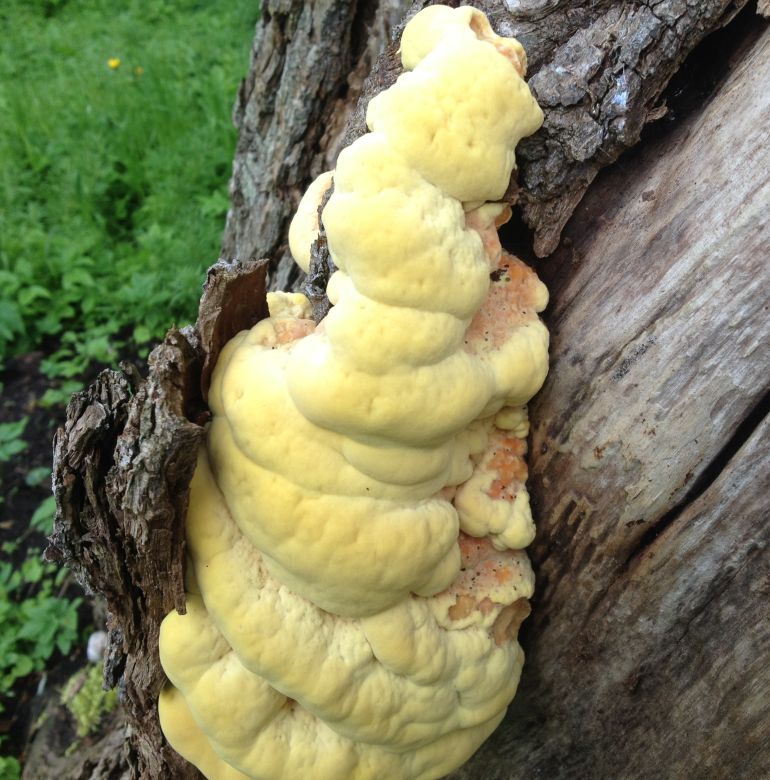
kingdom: Fungi
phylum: Basidiomycota
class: Agaricomycetes
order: Polyporales
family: Laetiporaceae
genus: Laetiporus
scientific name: Laetiporus sulphureus
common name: svovlporesvamp
